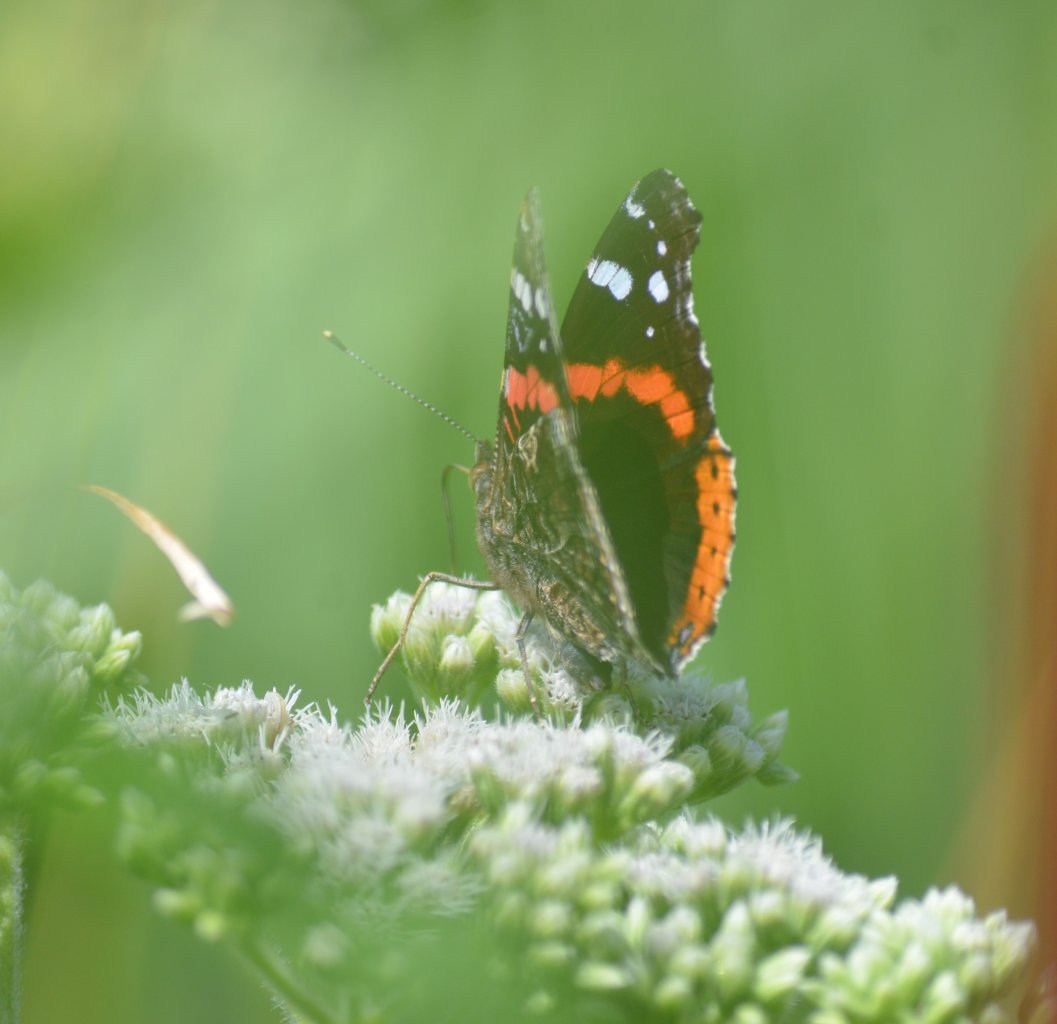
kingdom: Animalia
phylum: Arthropoda
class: Insecta
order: Lepidoptera
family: Nymphalidae
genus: Vanessa
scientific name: Vanessa atalanta
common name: Red Admiral
